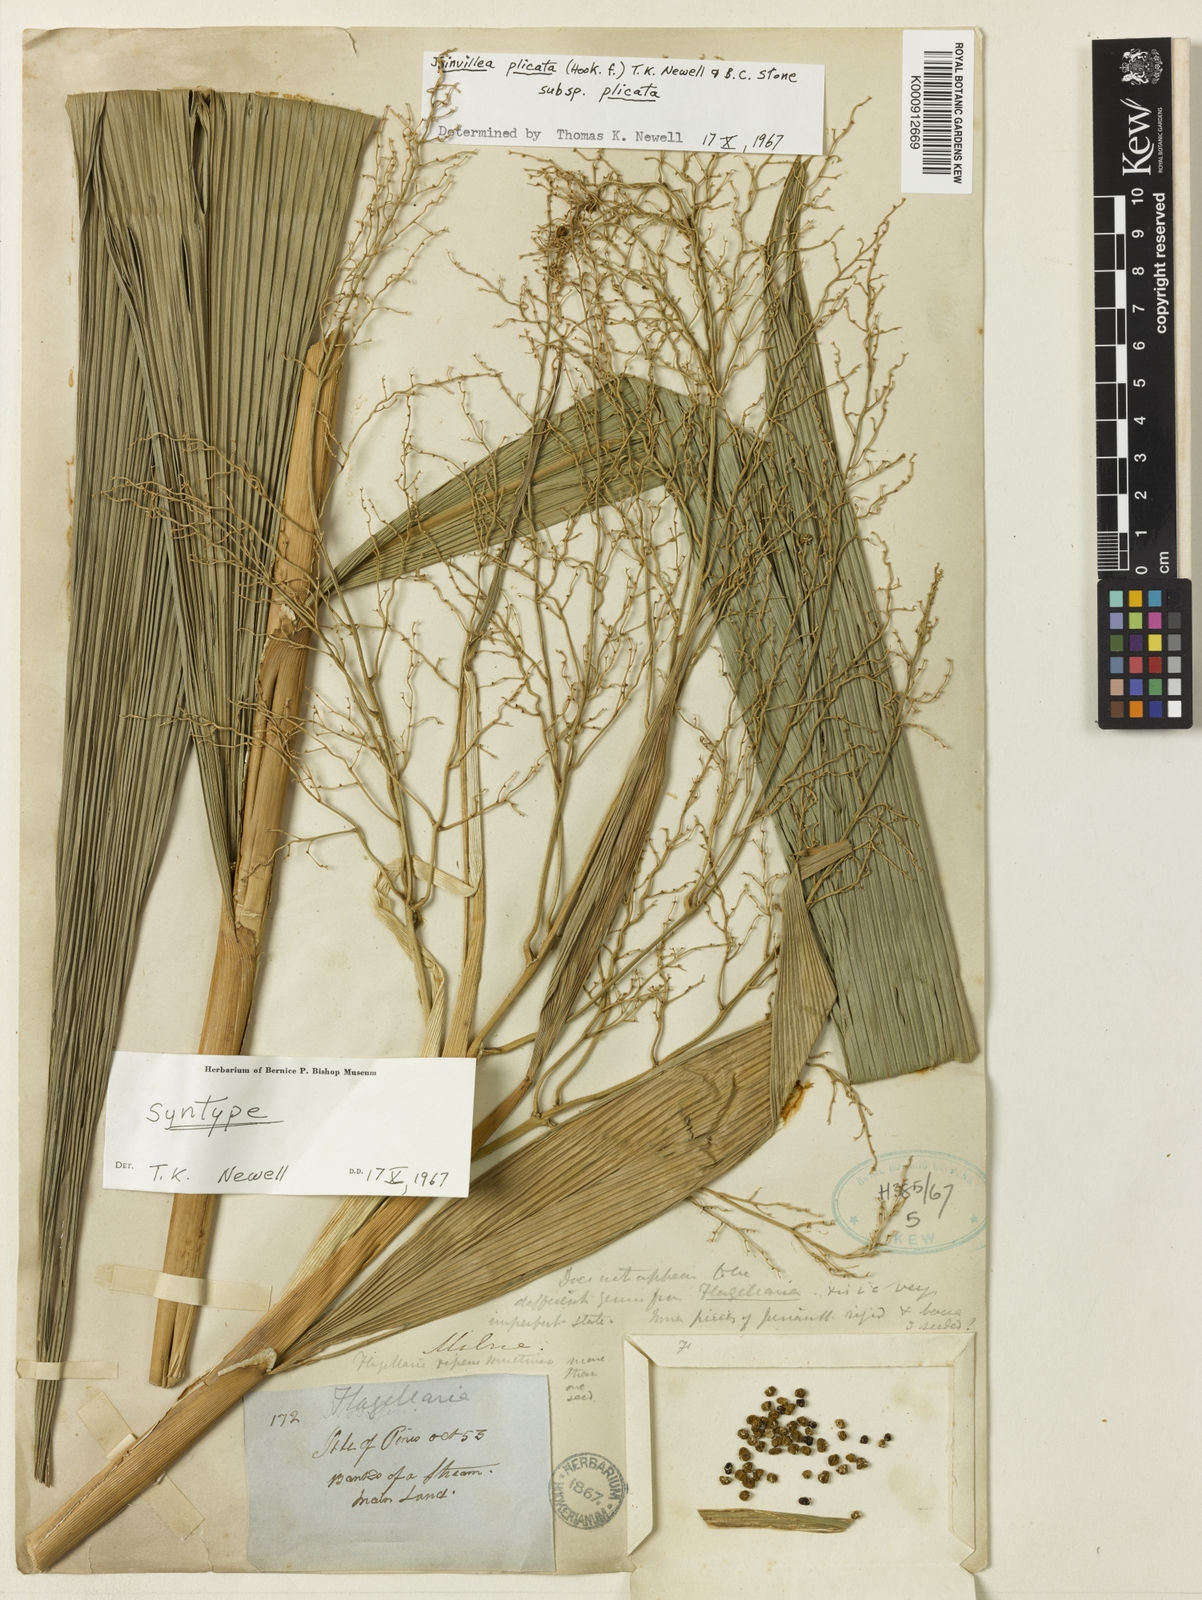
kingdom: Plantae
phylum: Tracheophyta
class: Liliopsida
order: Poales
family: Joinvilleaceae
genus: Joinvillea
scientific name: Joinvillea plicata
